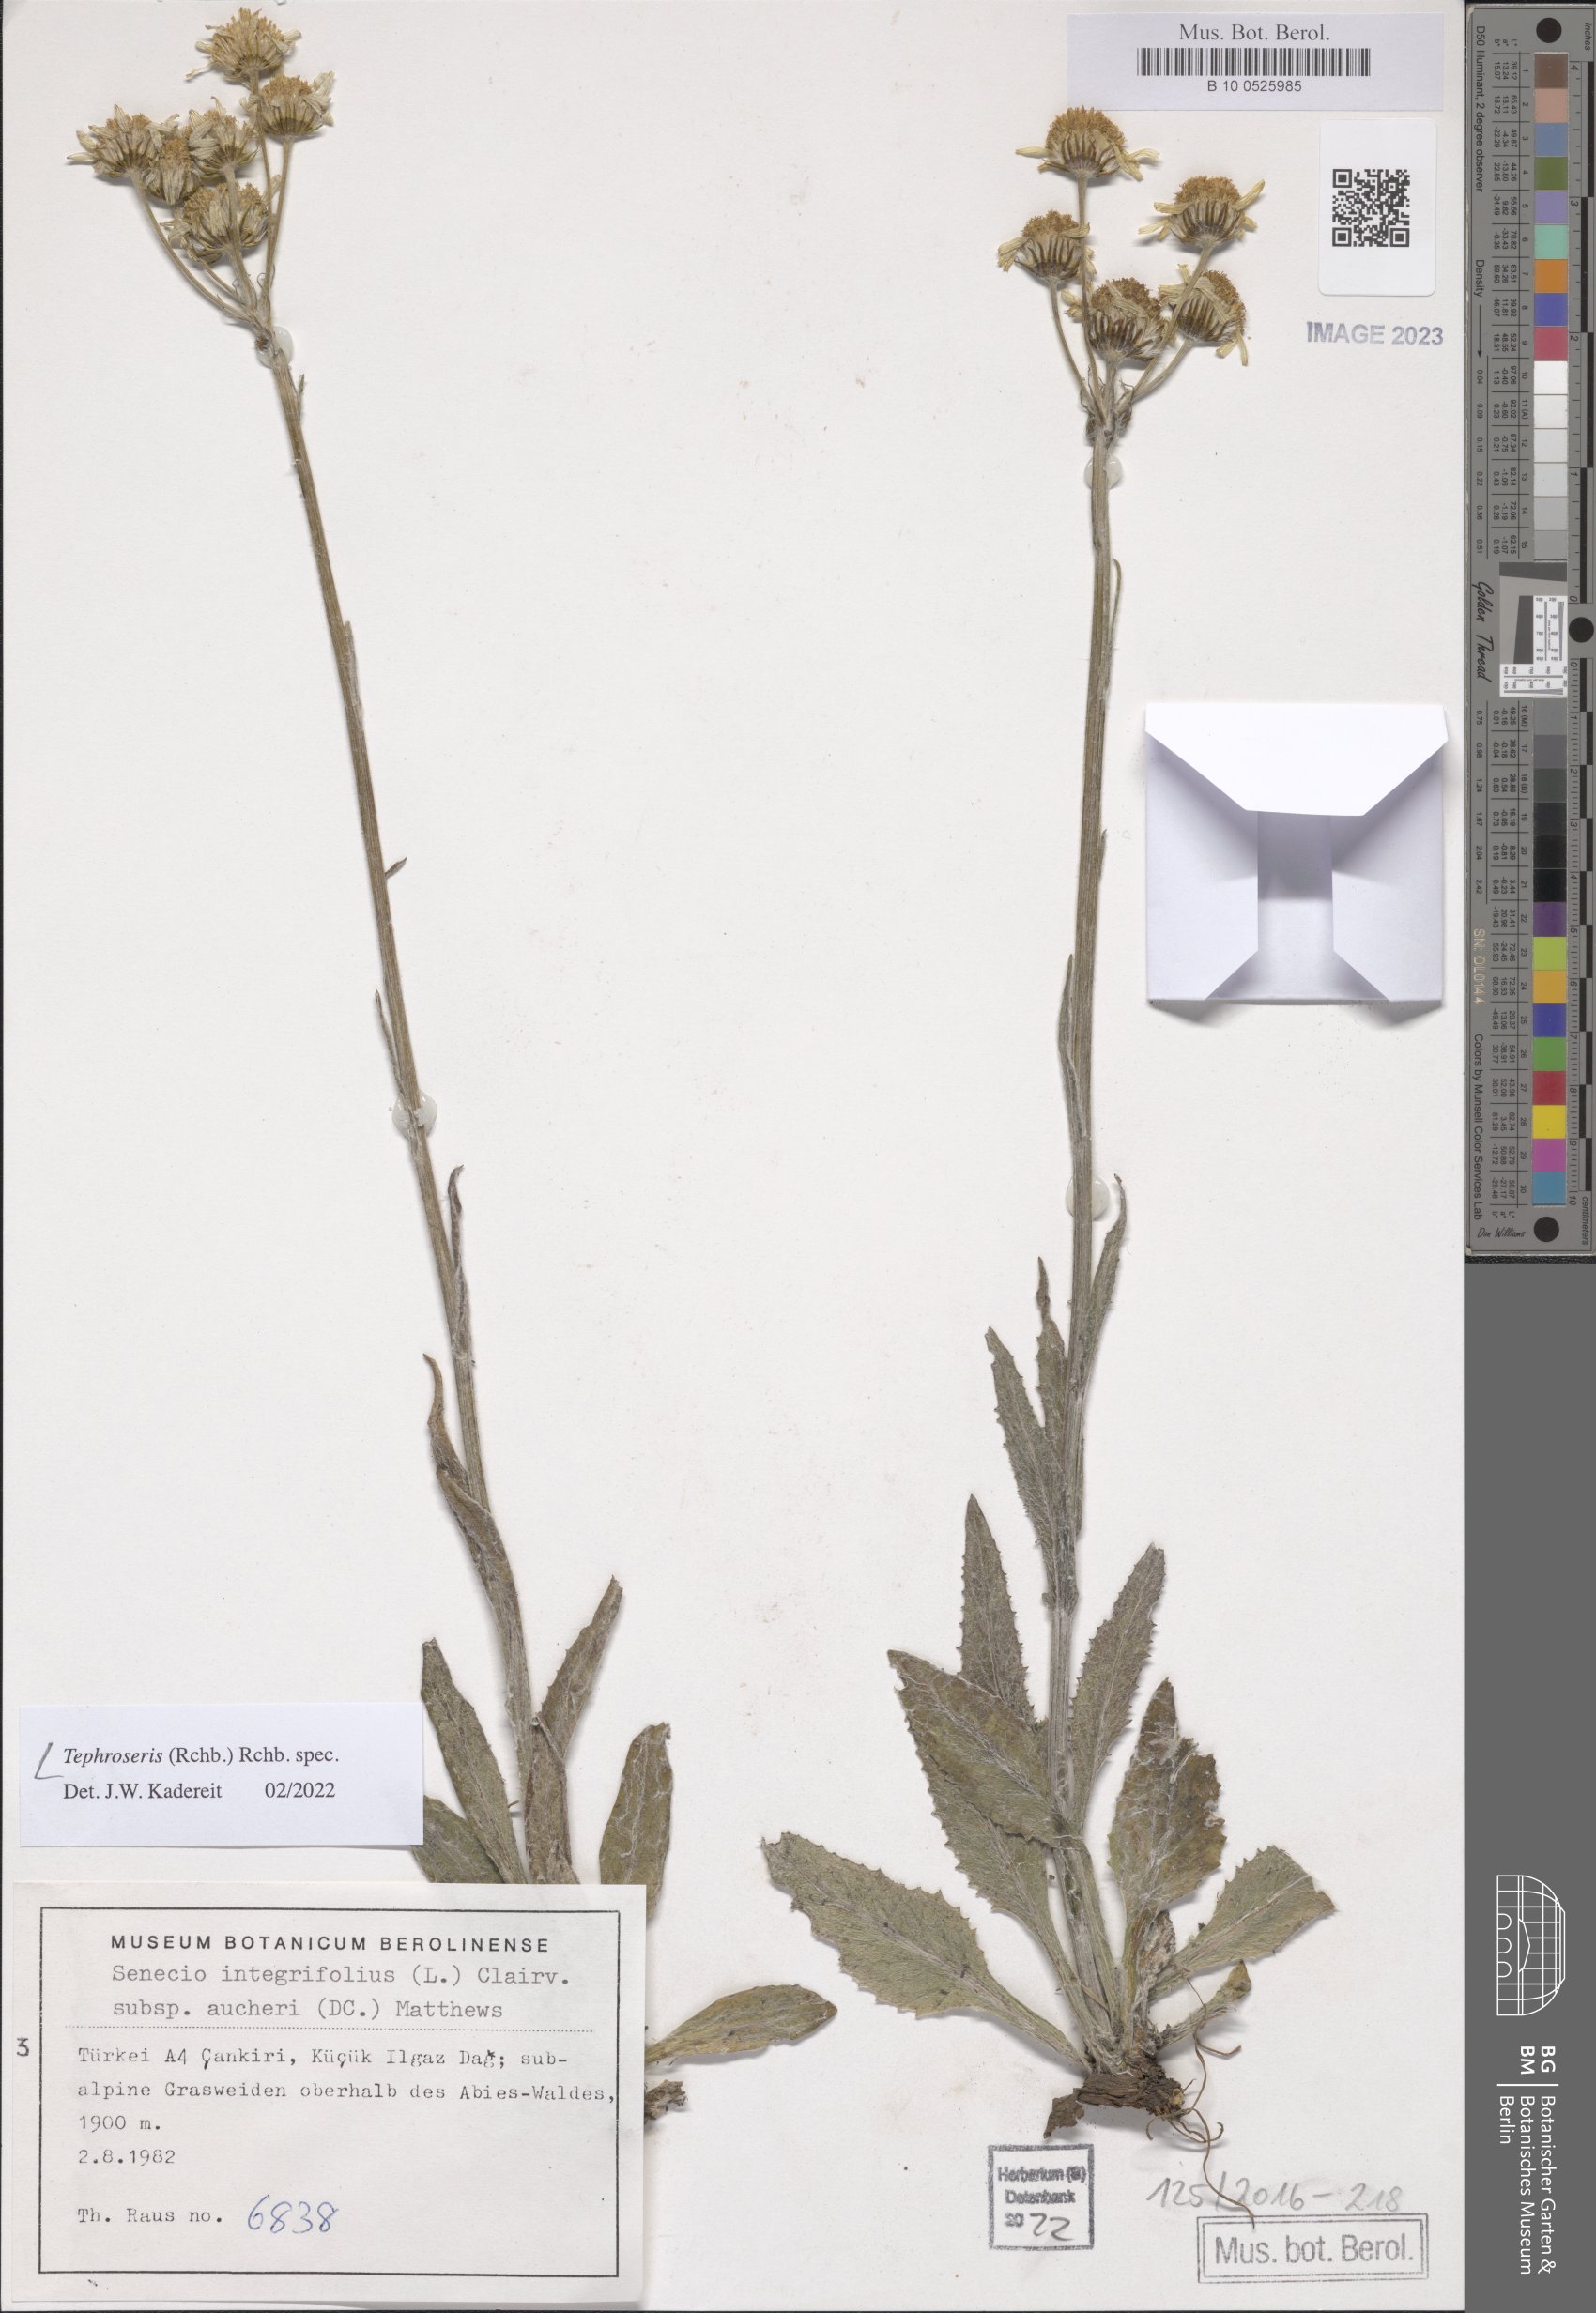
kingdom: Plantae
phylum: Tracheophyta
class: Magnoliopsida
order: Asterales
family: Asteraceae
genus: Tephroseris
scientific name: Tephroseris
